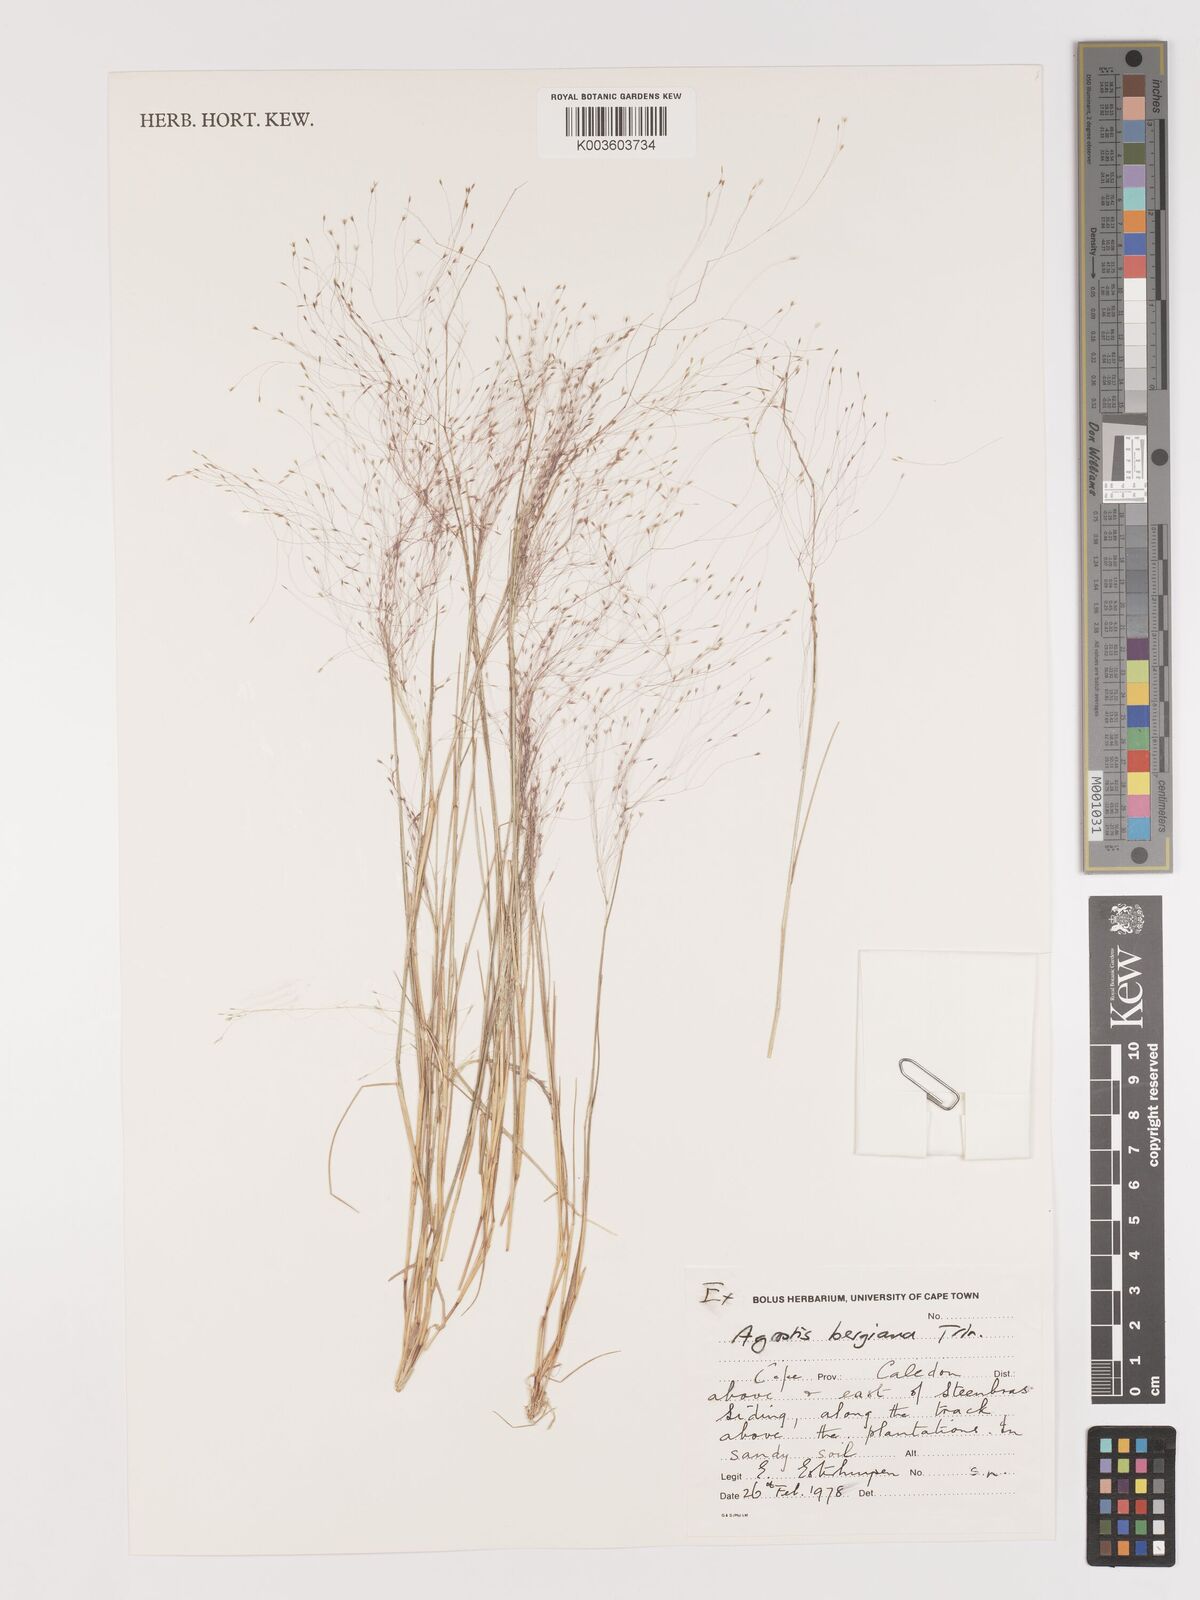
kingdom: Plantae
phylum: Tracheophyta
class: Liliopsida
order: Poales
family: Poaceae
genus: Agrostis
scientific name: Agrostis bergiana
